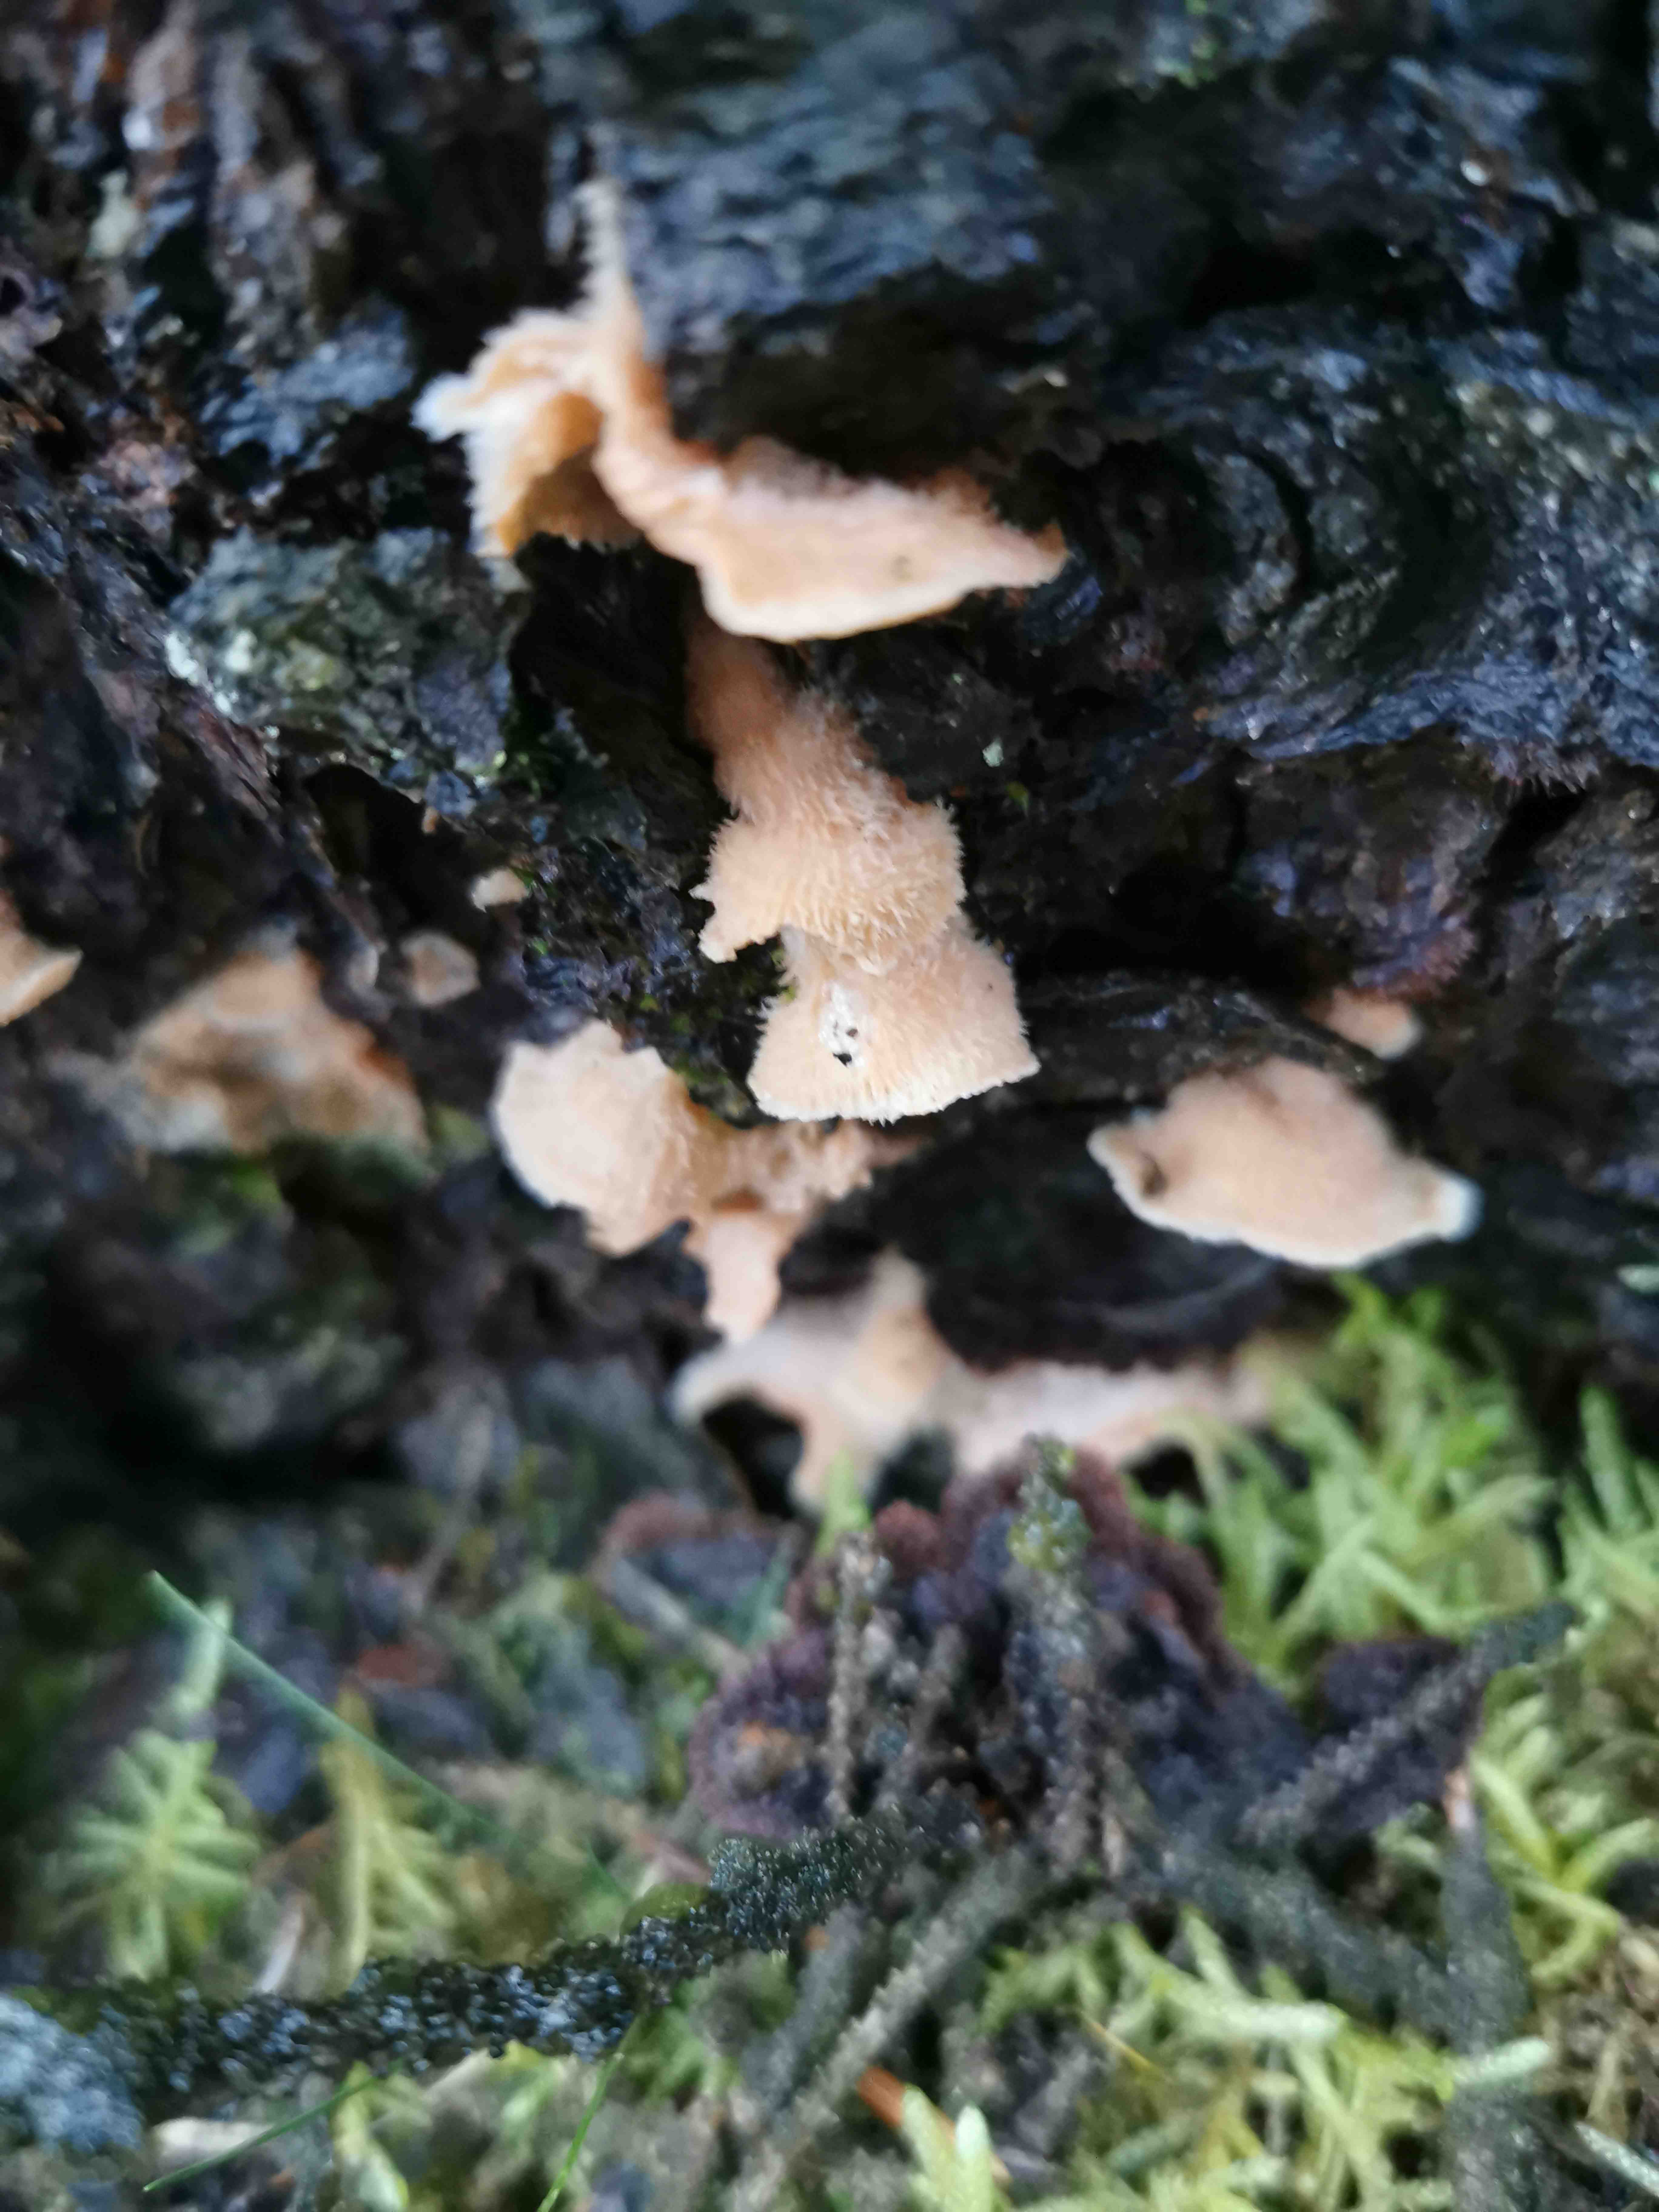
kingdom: Fungi
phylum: Basidiomycota
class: Agaricomycetes
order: Polyporales
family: Meruliaceae
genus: Phlebia
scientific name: Phlebia tremellosa
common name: bævrende åresvamp
